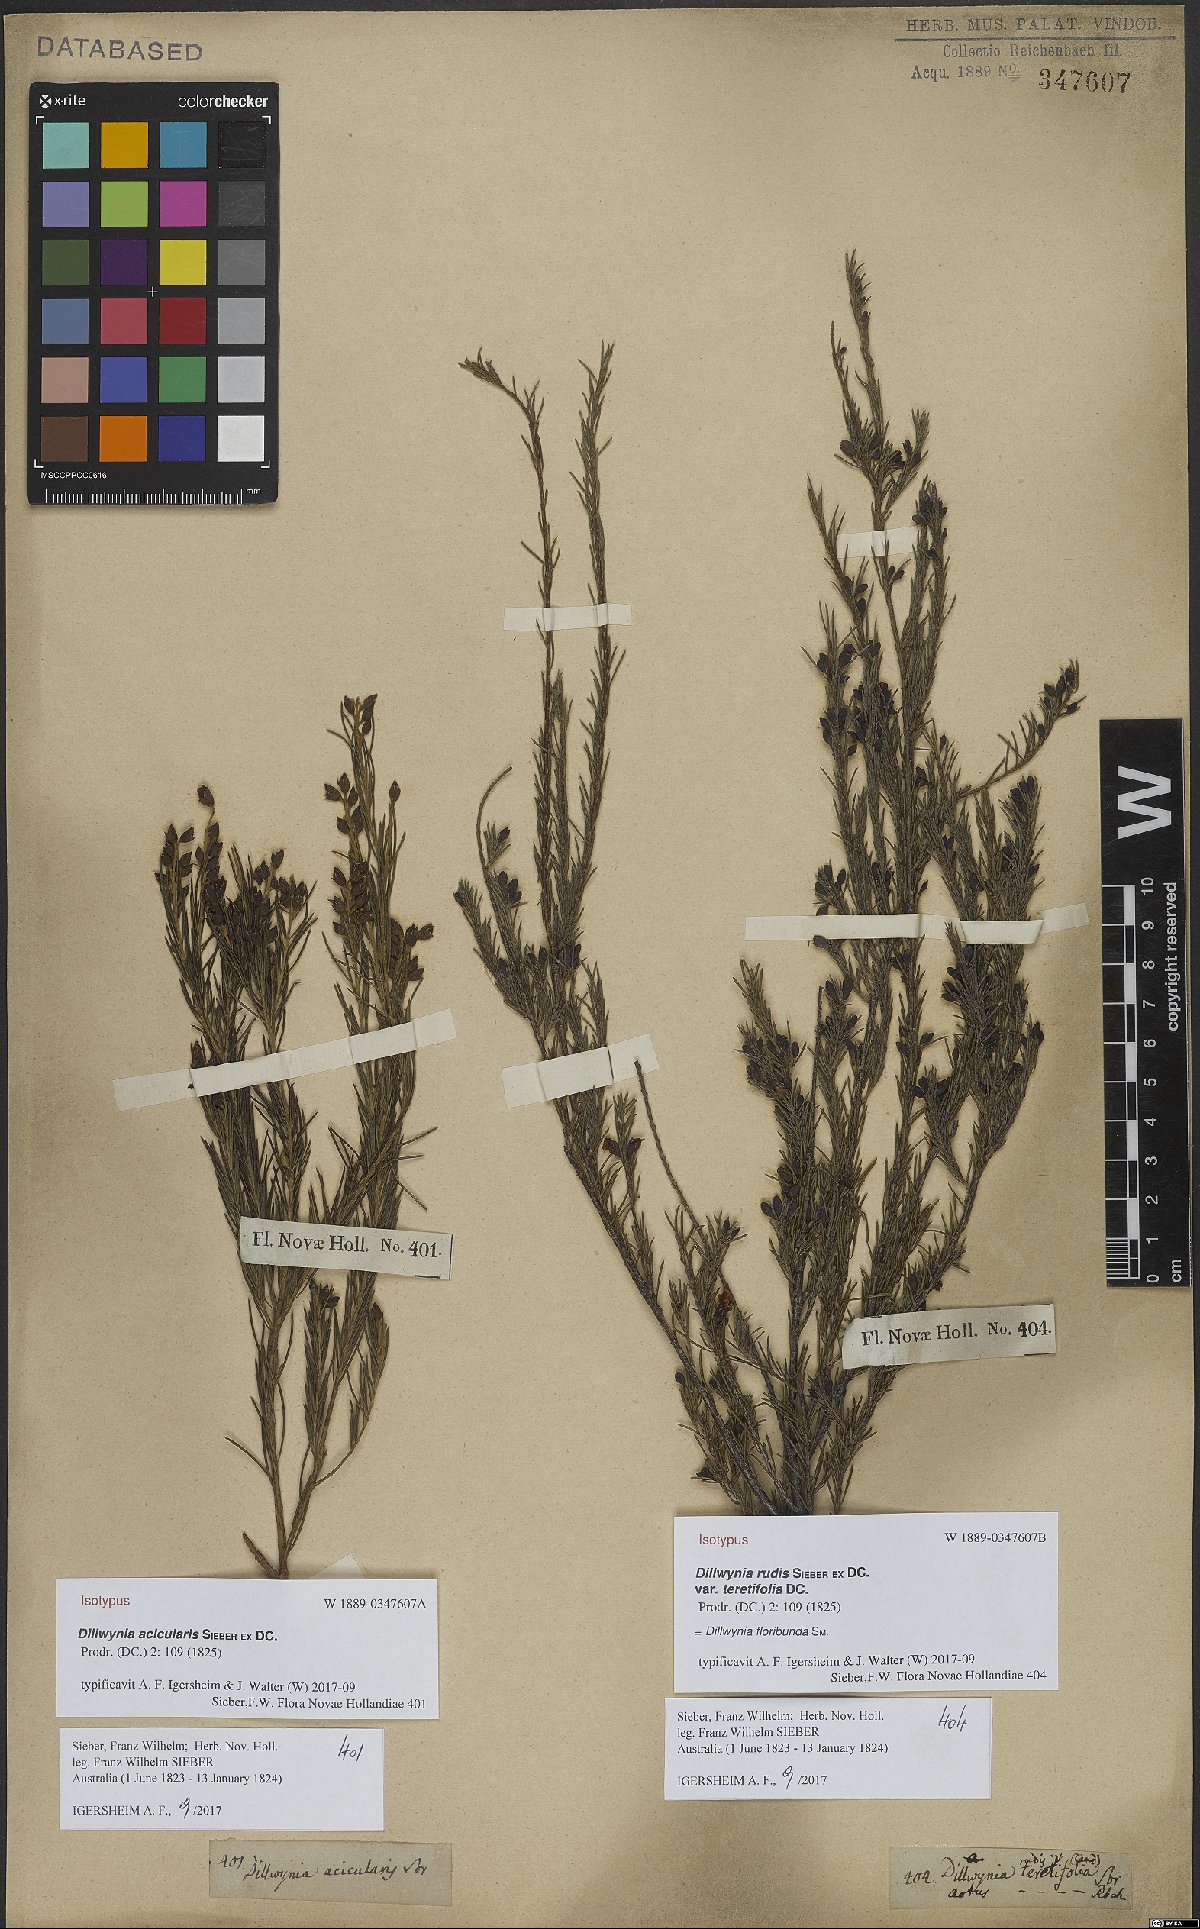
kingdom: Plantae
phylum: Tracheophyta
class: Magnoliopsida
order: Fabales
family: Fabaceae
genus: Dillwynia
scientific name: Dillwynia acicularis
